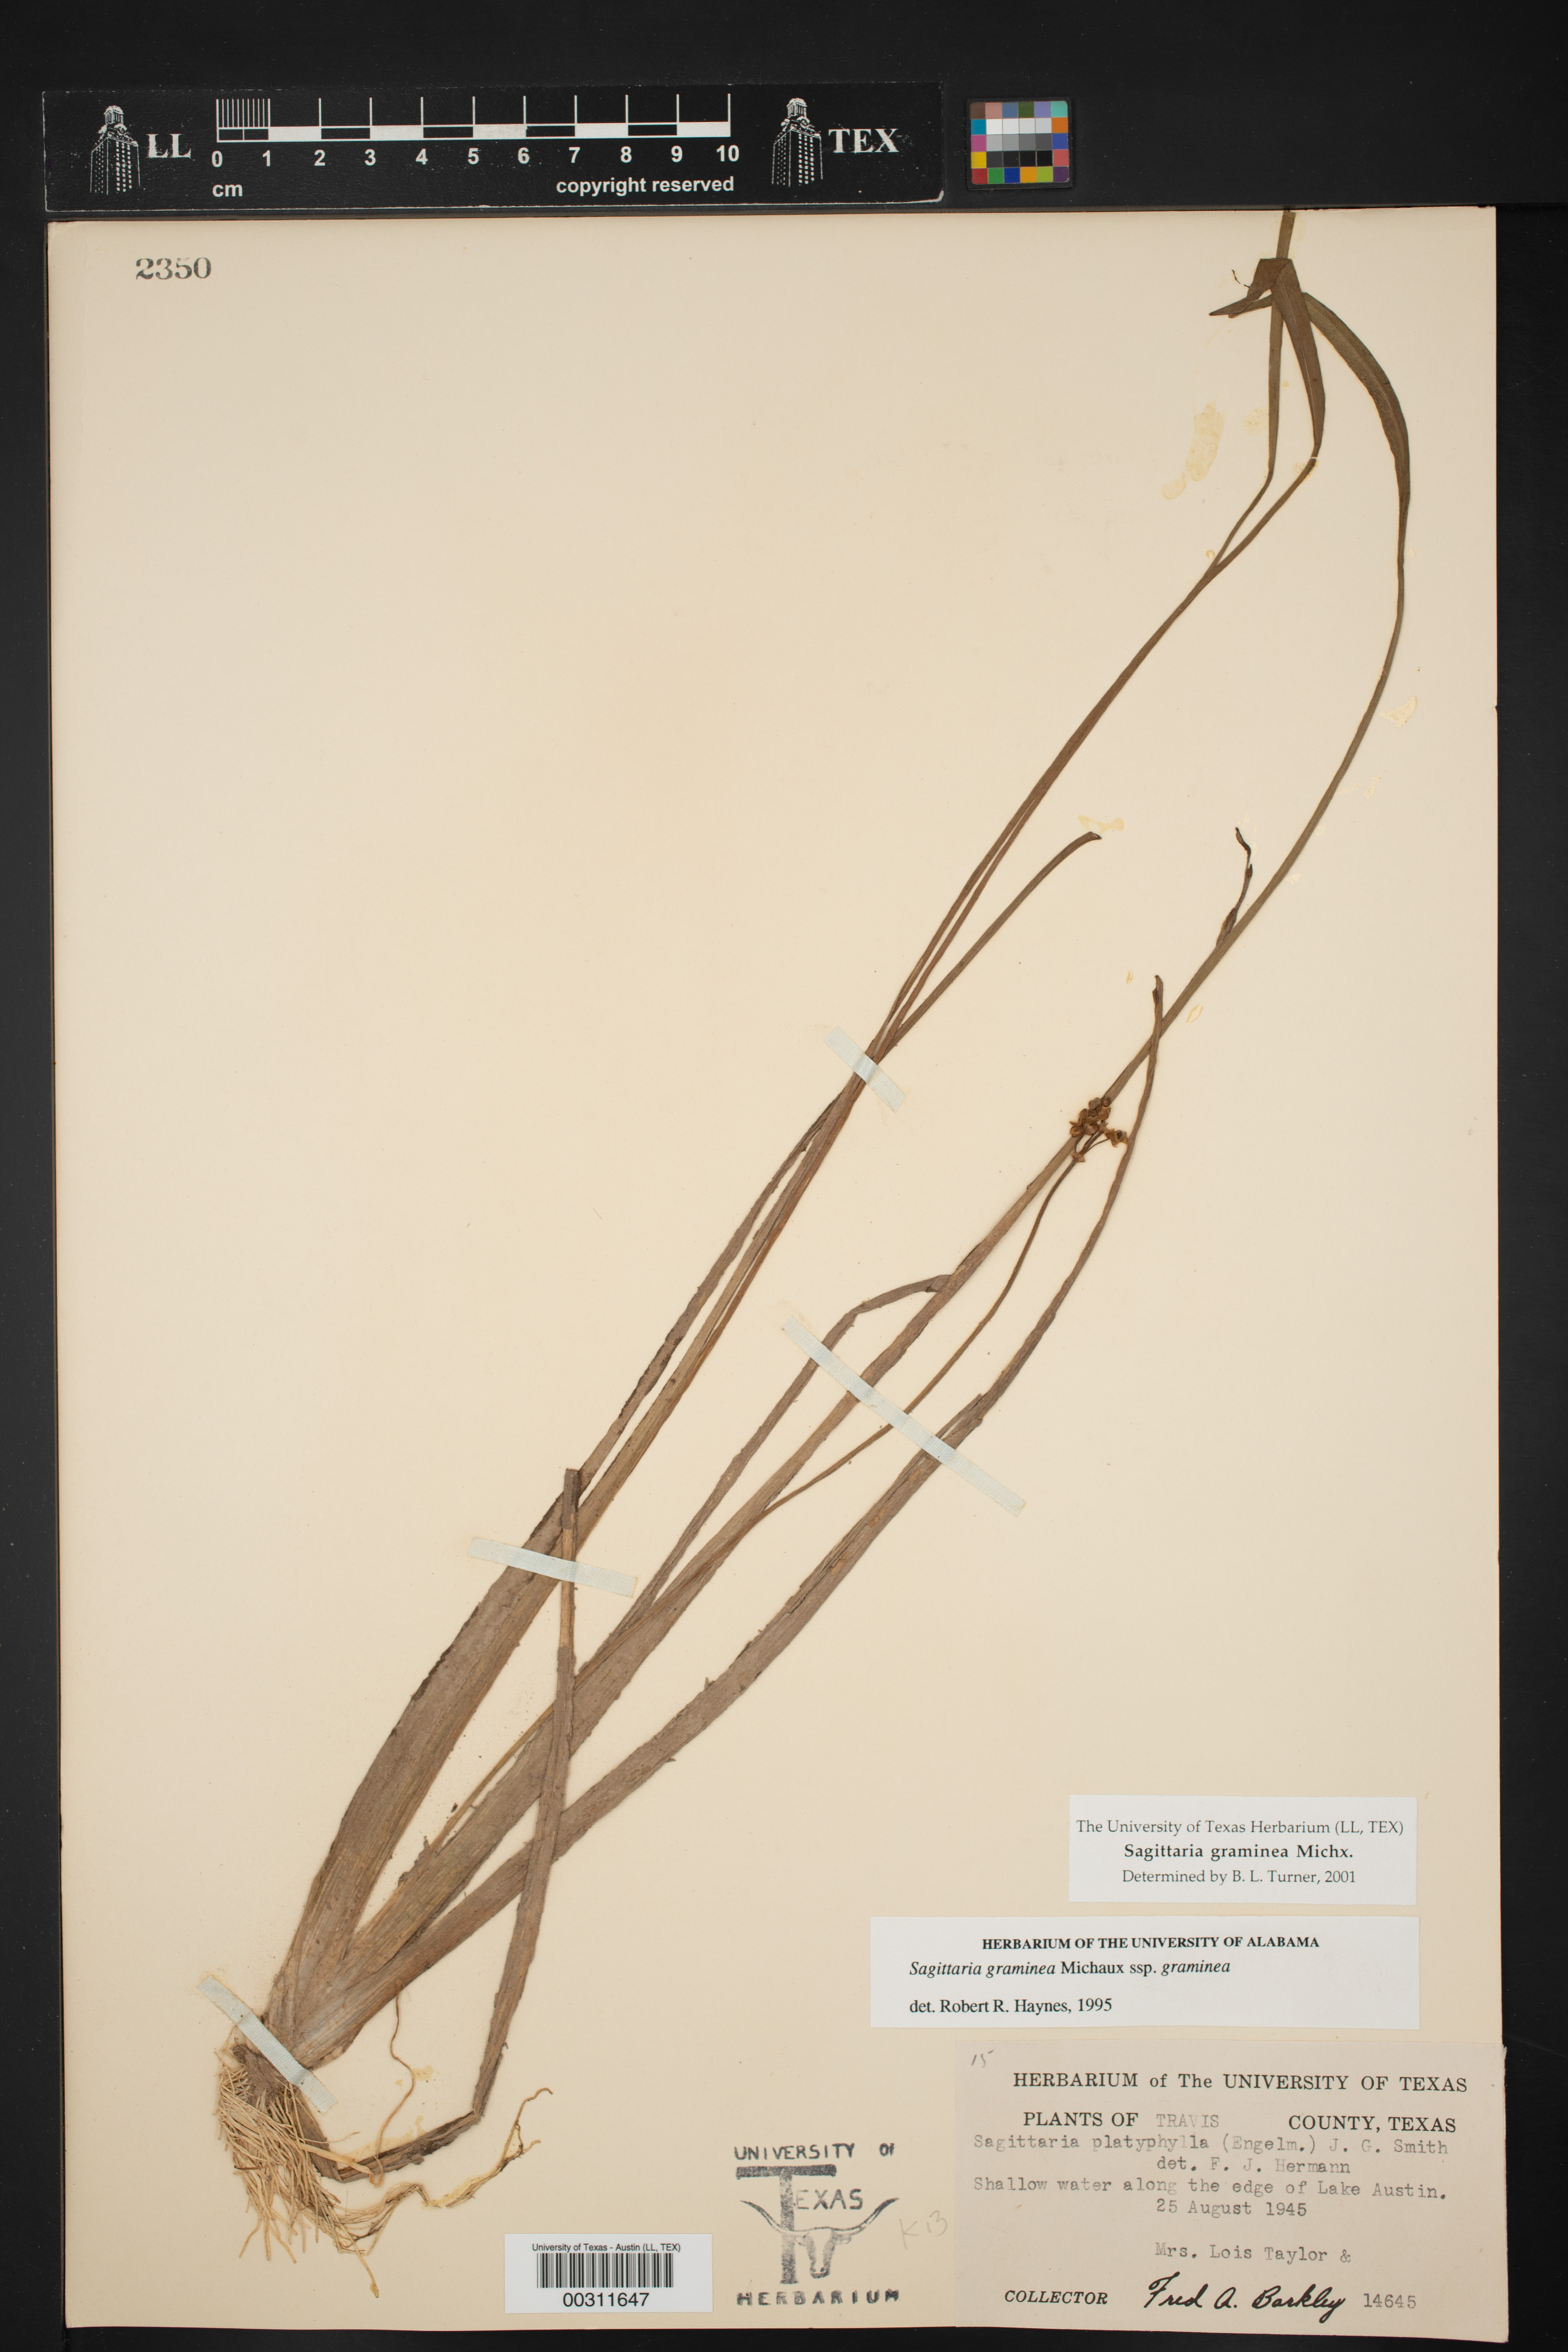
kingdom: Plantae
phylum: Tracheophyta
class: Liliopsida
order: Alismatales
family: Alismataceae
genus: Sagittaria
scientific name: Sagittaria graminea
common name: Grass-leaved arrowhead
